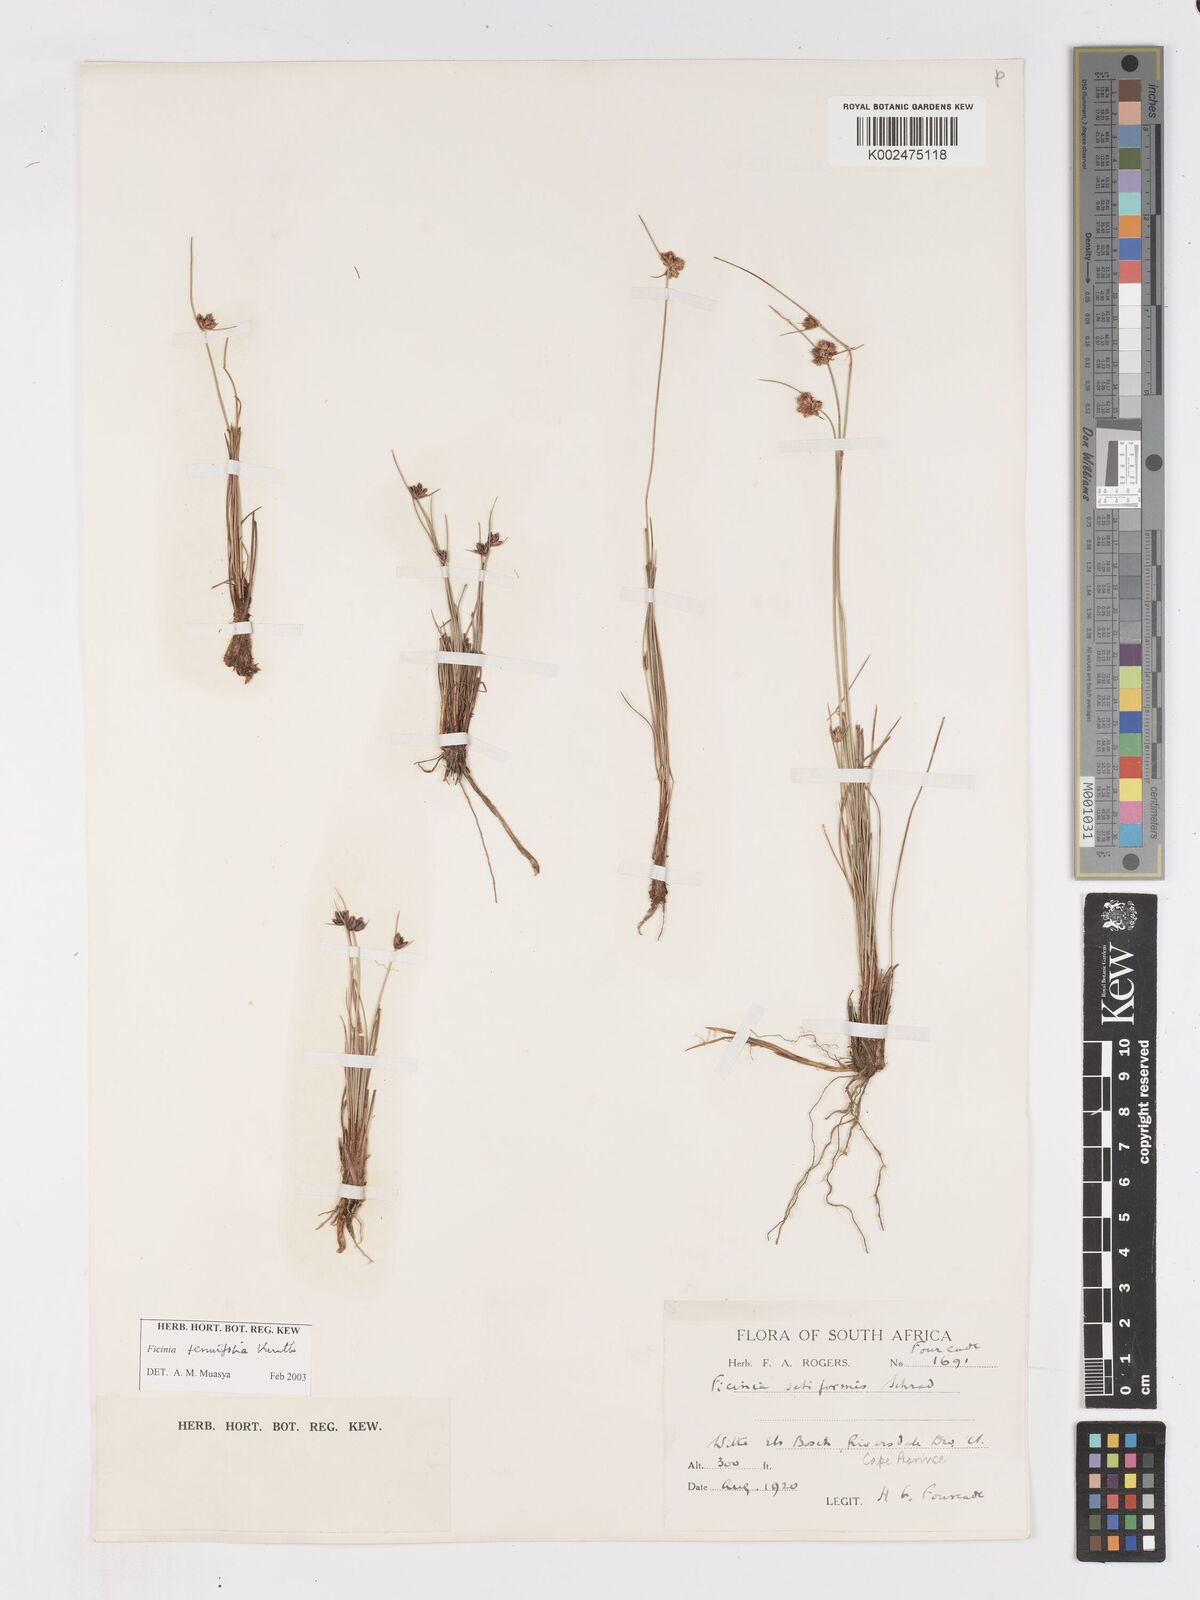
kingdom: Plantae
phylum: Tracheophyta
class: Liliopsida
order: Poales
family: Cyperaceae
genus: Ficinia
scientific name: Ficinia filiformis
